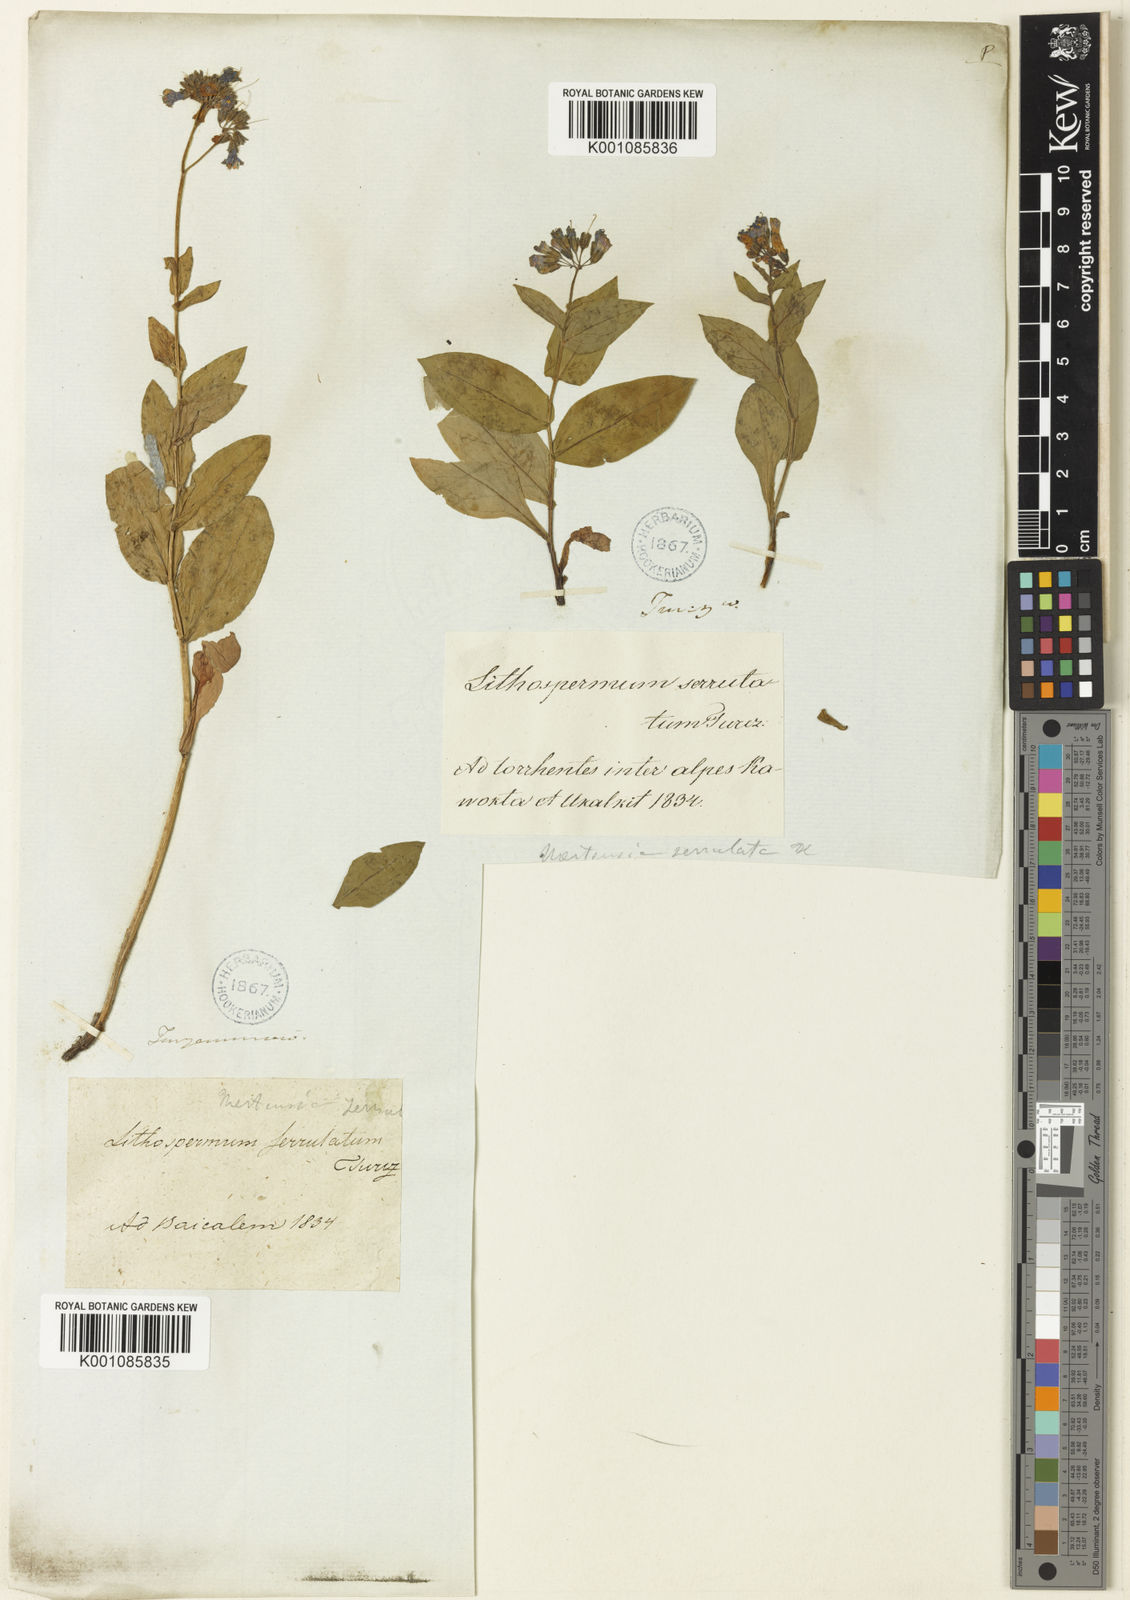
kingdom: Plantae
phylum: Tracheophyta
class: Magnoliopsida
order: Boraginales
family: Boraginaceae
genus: Mertensia
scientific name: Mertensia serrulata
